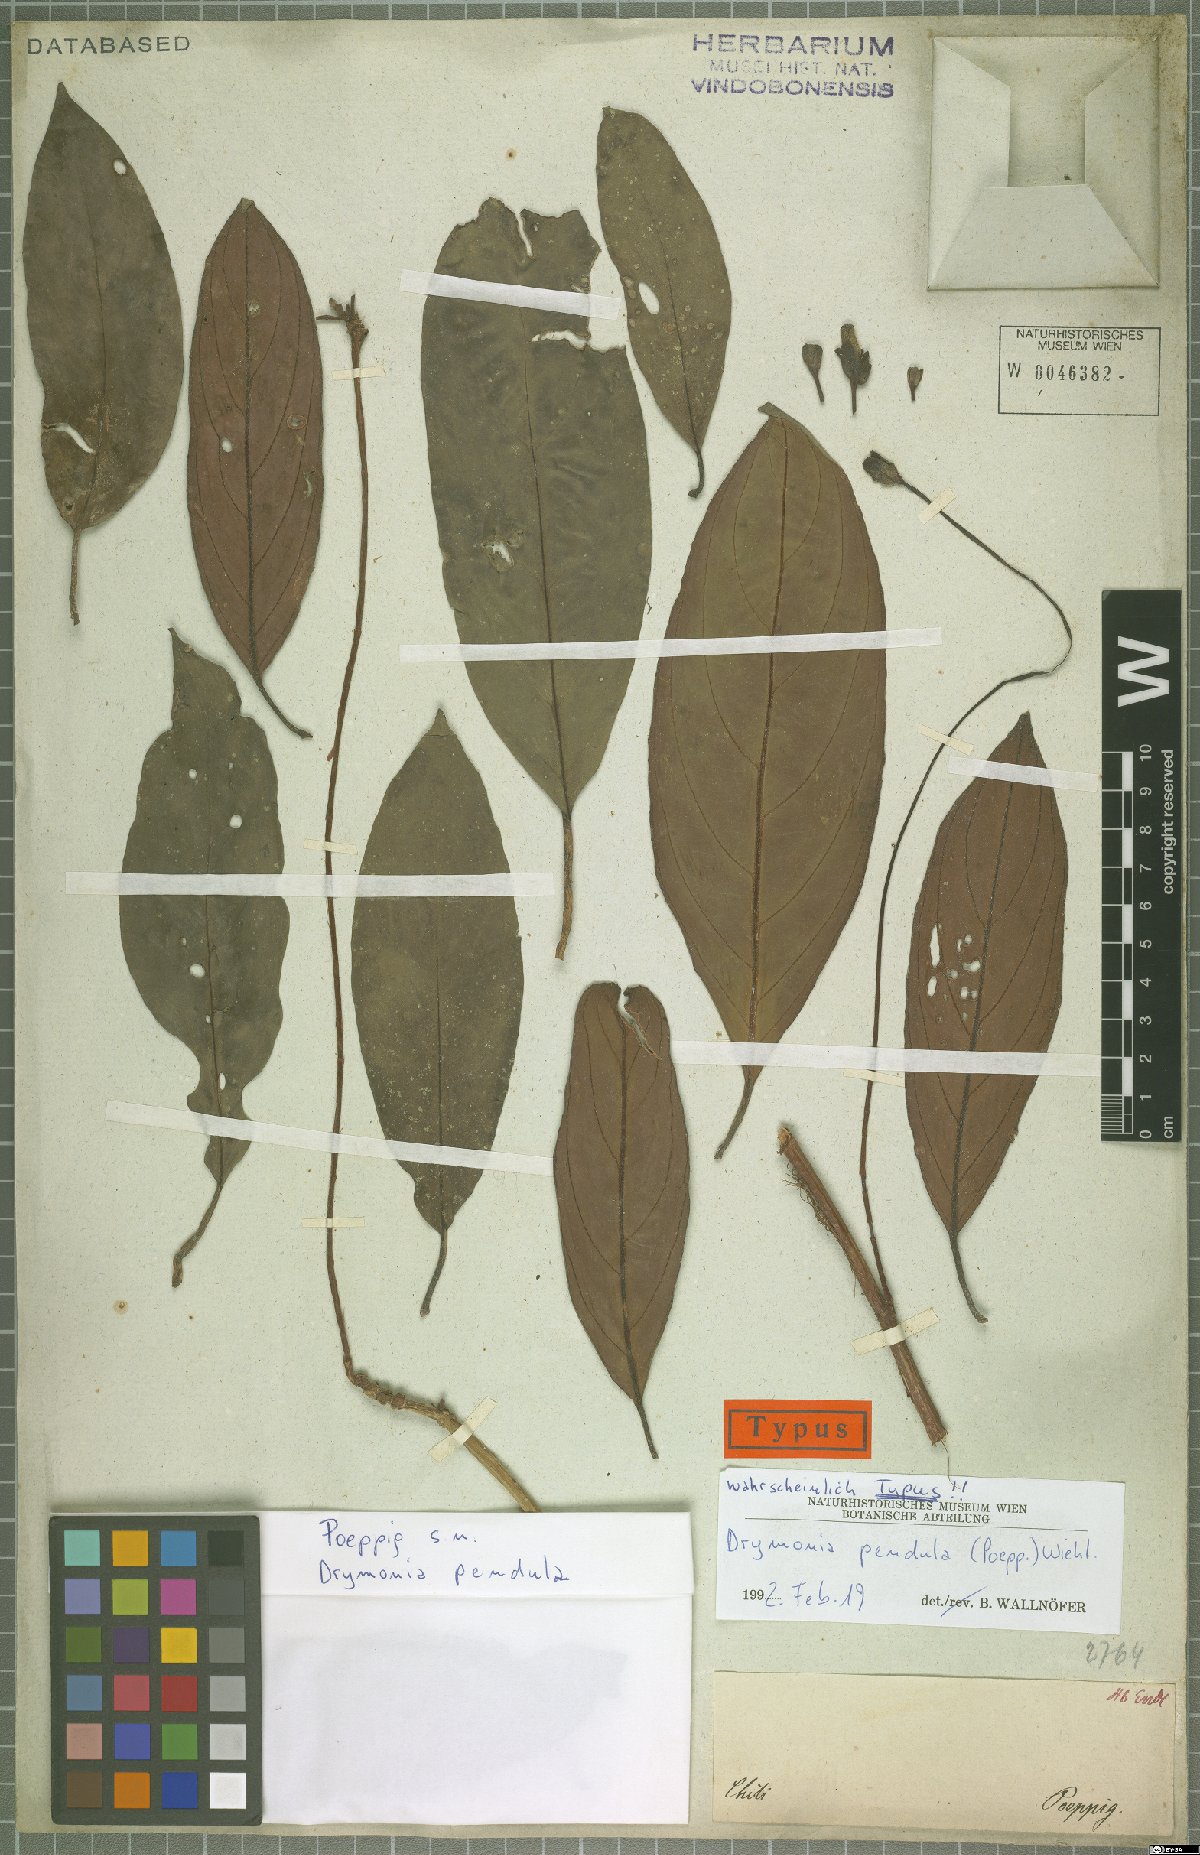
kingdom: Plantae
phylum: Tracheophyta
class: Magnoliopsida
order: Lamiales
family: Gesneriaceae
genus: Drymonia
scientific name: Drymonia pendula
